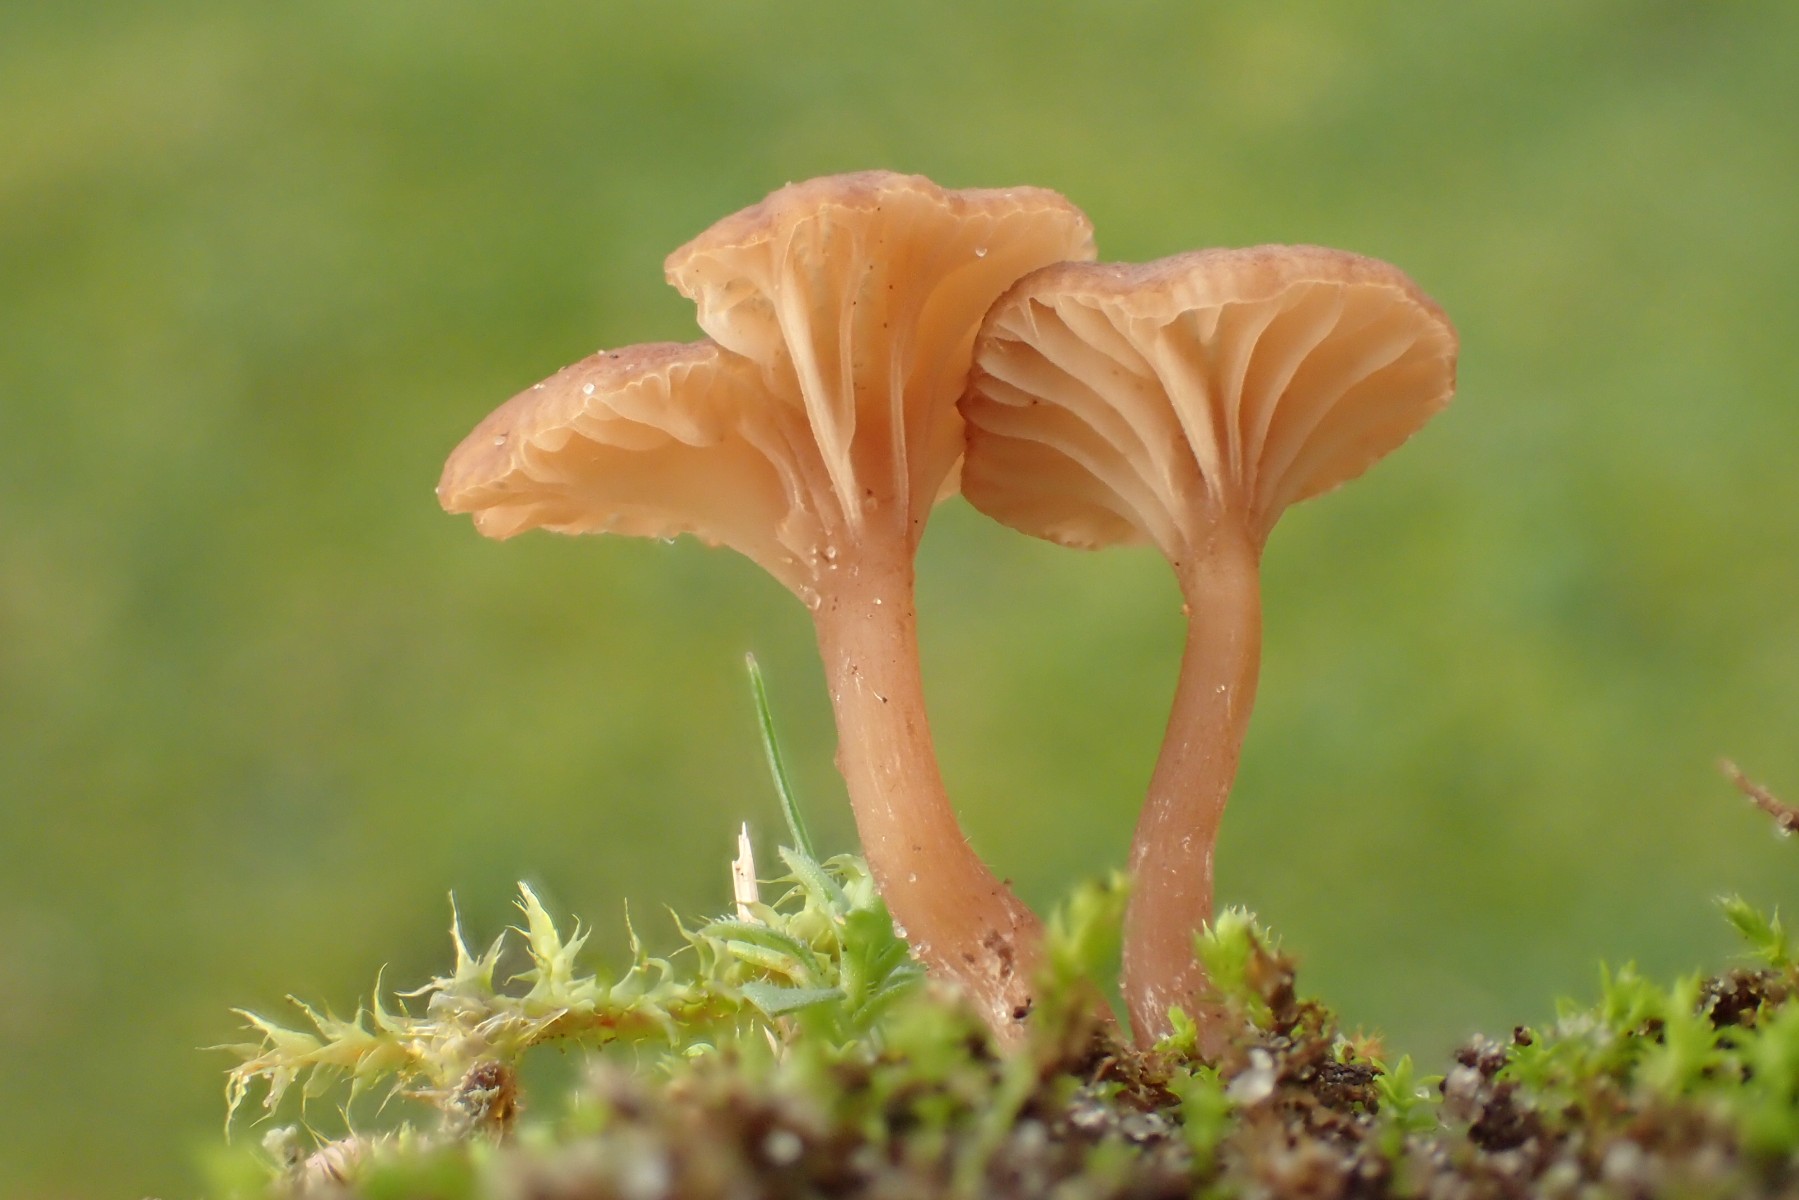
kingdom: Fungi
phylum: Basidiomycota
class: Agaricomycetes
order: Agaricales
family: Tricholomataceae
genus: Omphalina
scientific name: Omphalina pyxidata
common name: rødbrun navlehat
